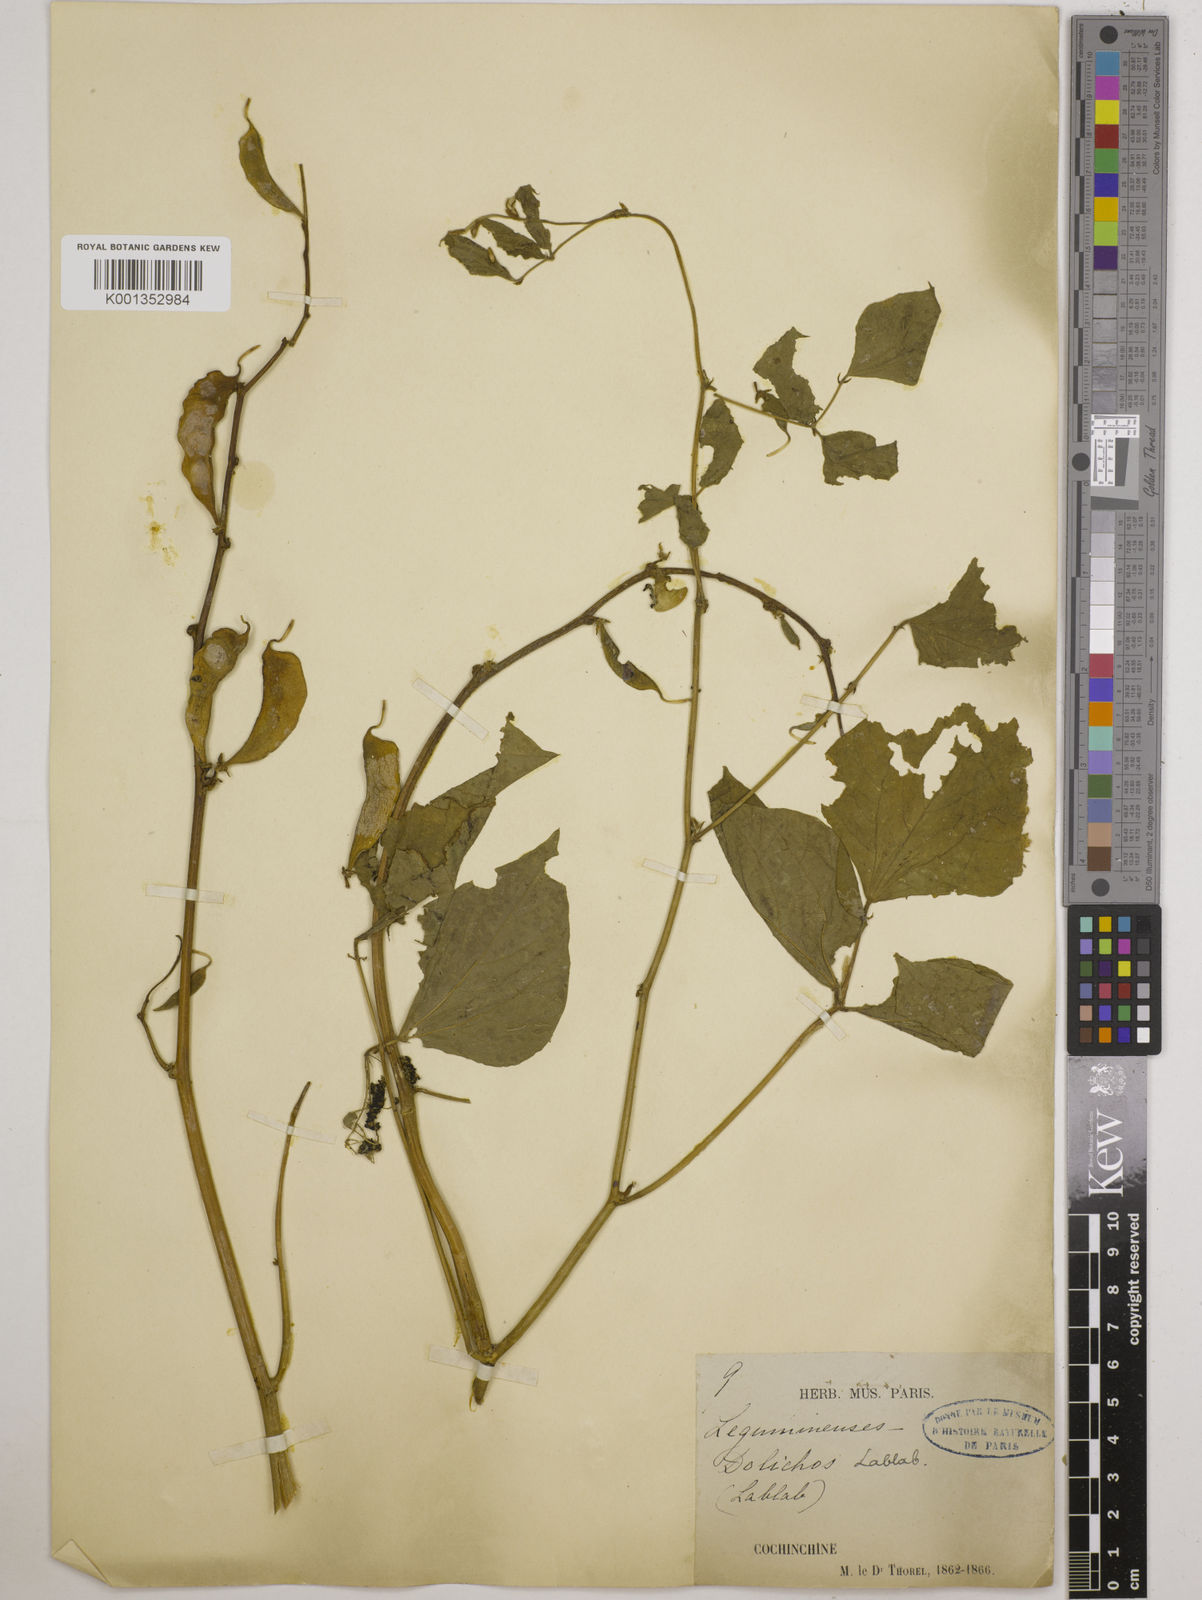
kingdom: Plantae
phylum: Tracheophyta
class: Magnoliopsida
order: Fabales
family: Fabaceae
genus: Lablab
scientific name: Lablab purpureus
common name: Lablab-bean
